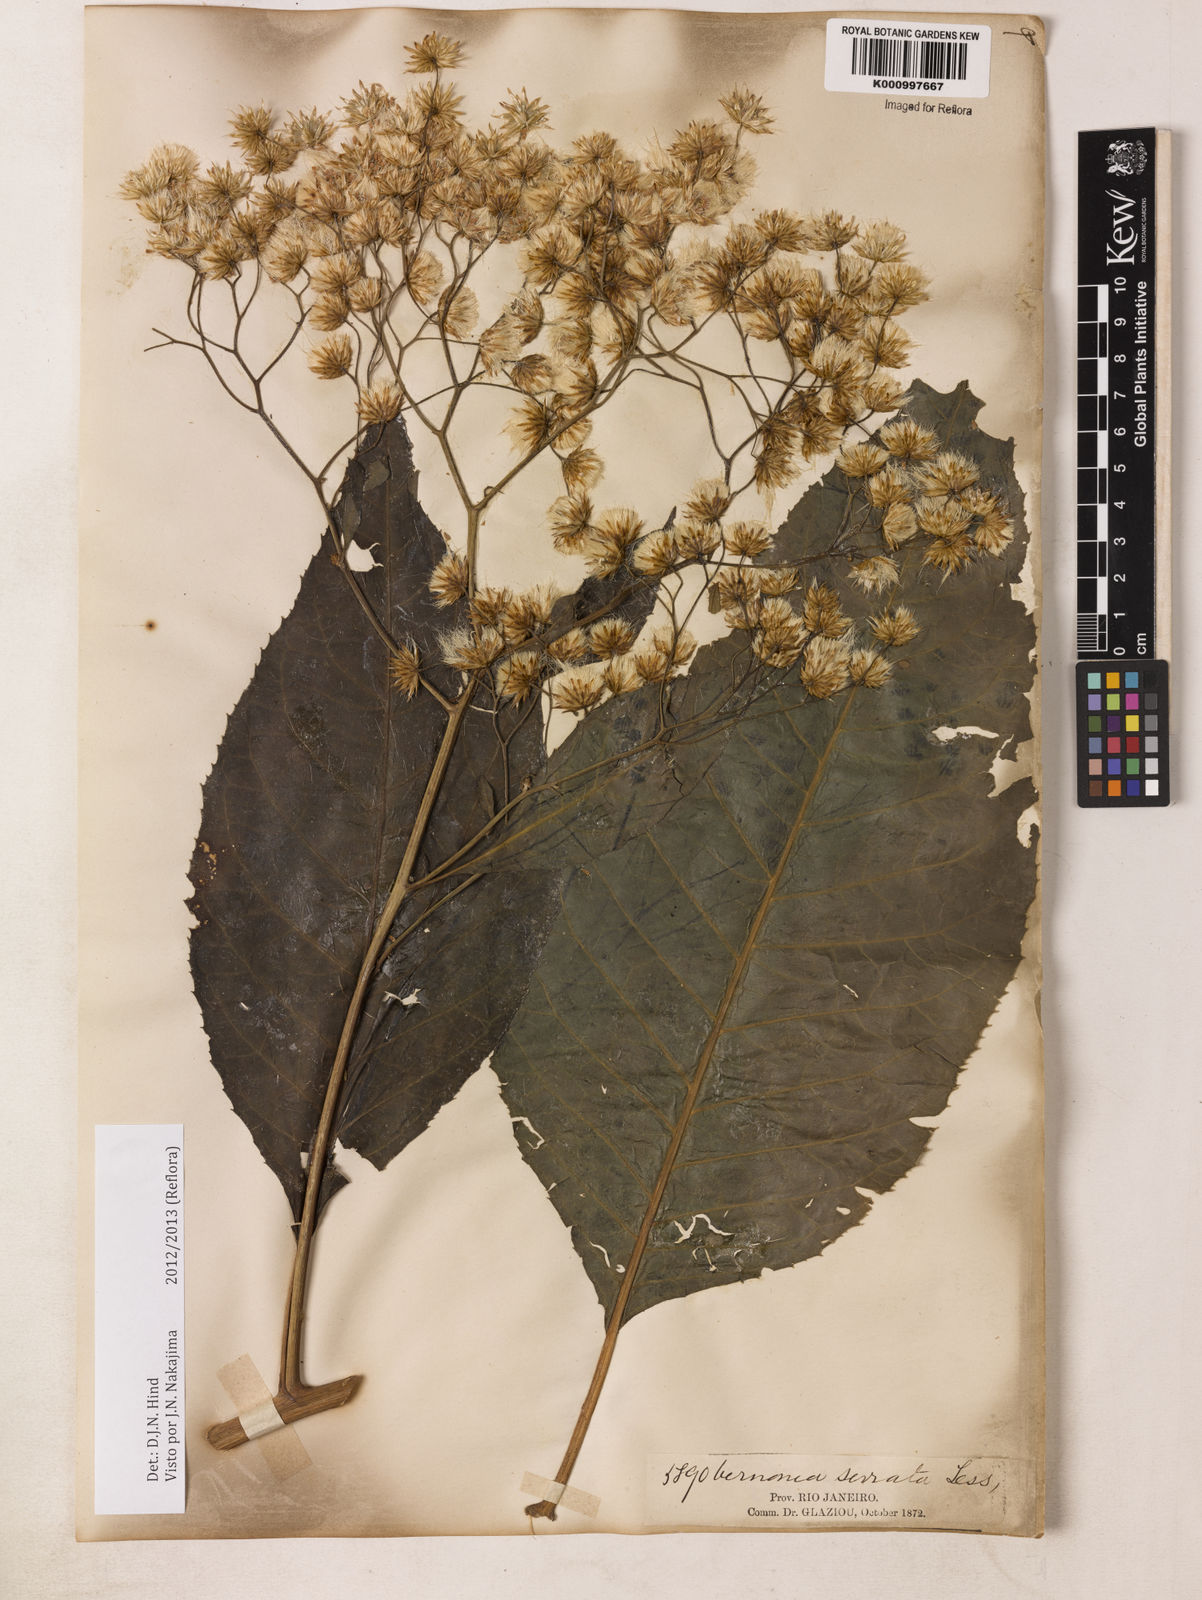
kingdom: Plantae
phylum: Tracheophyta
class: Magnoliopsida
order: Asterales
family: Asteraceae
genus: Dasyanthina
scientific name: Dasyanthina serrata
